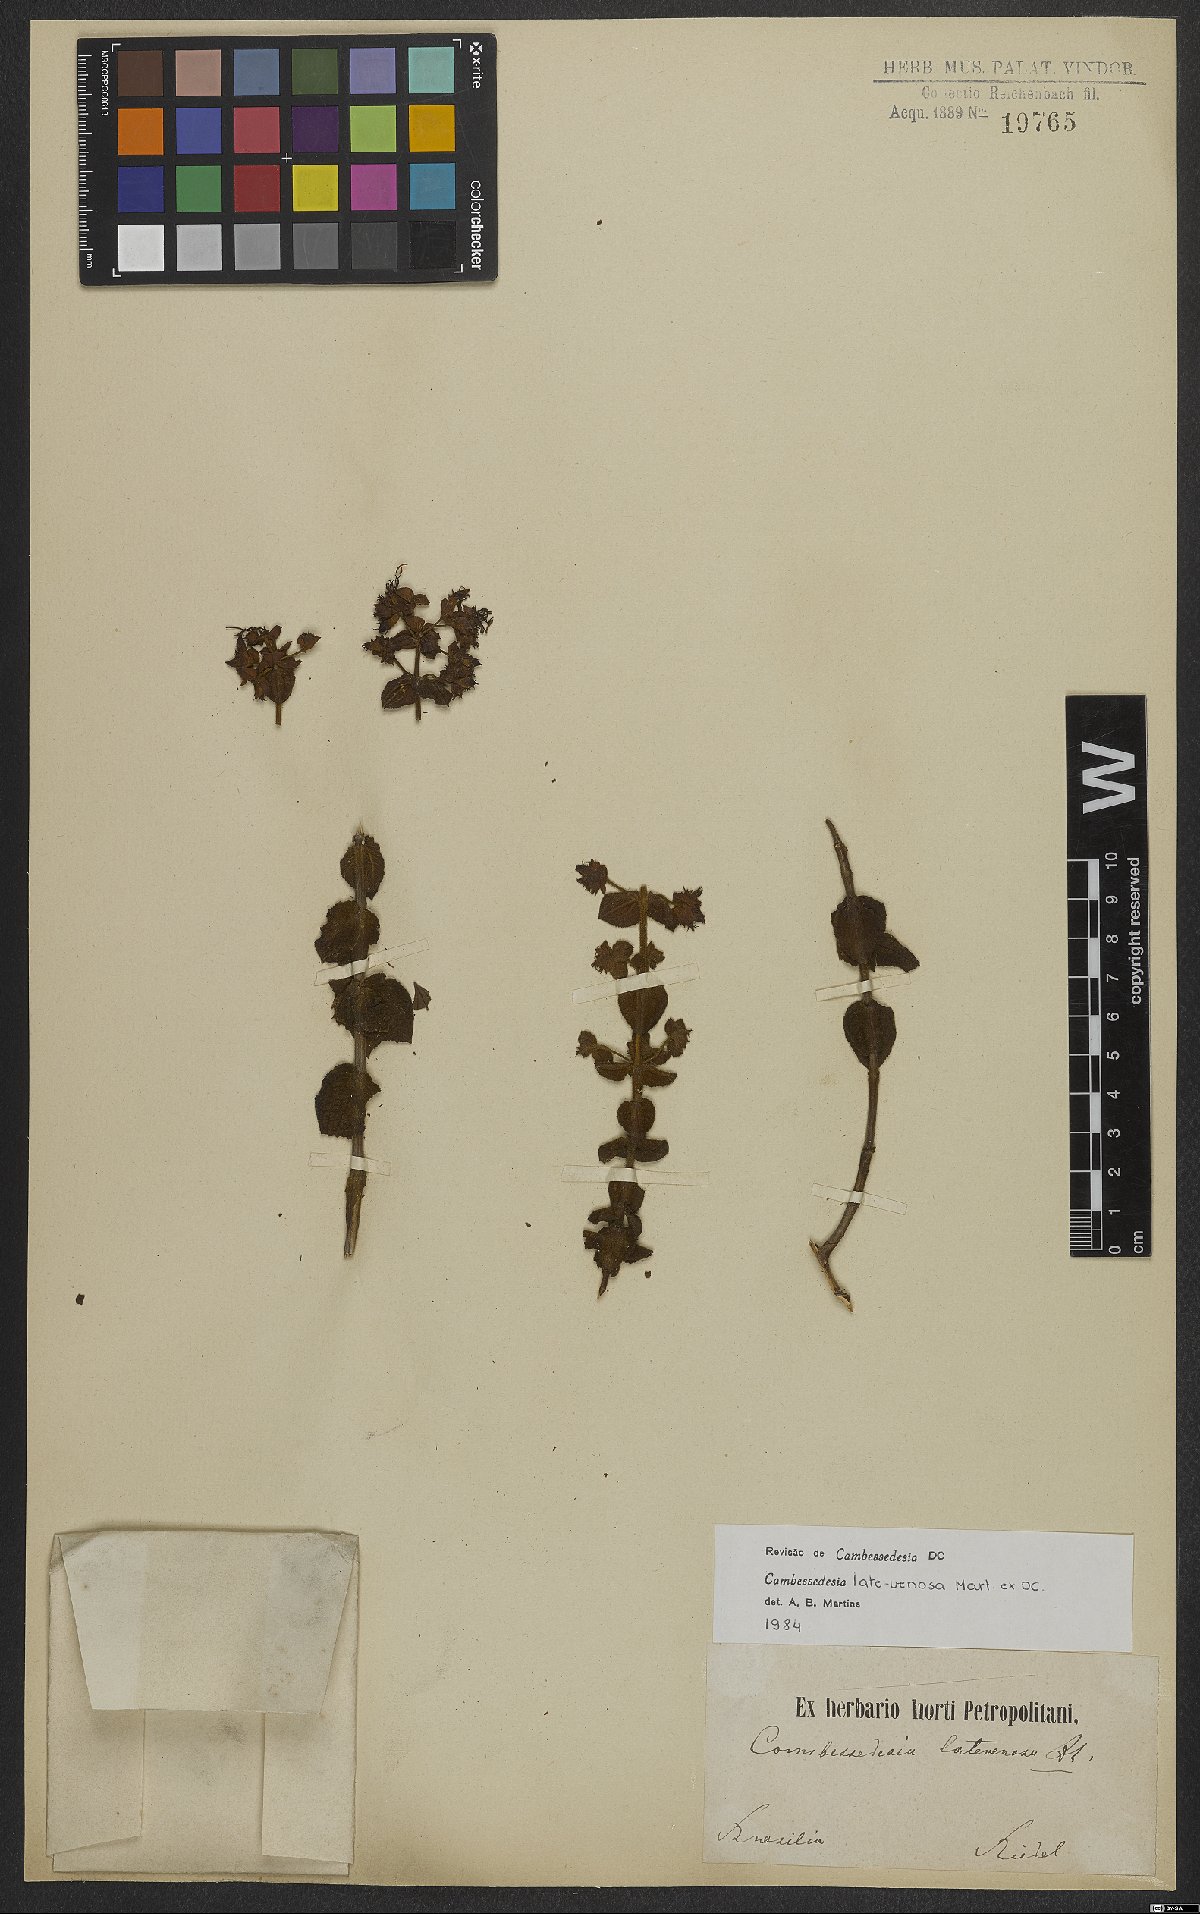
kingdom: Plantae
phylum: Tracheophyta
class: Magnoliopsida
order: Myrtales
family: Melastomataceae
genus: Cambessedesia
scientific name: Cambessedesia latevenosa
